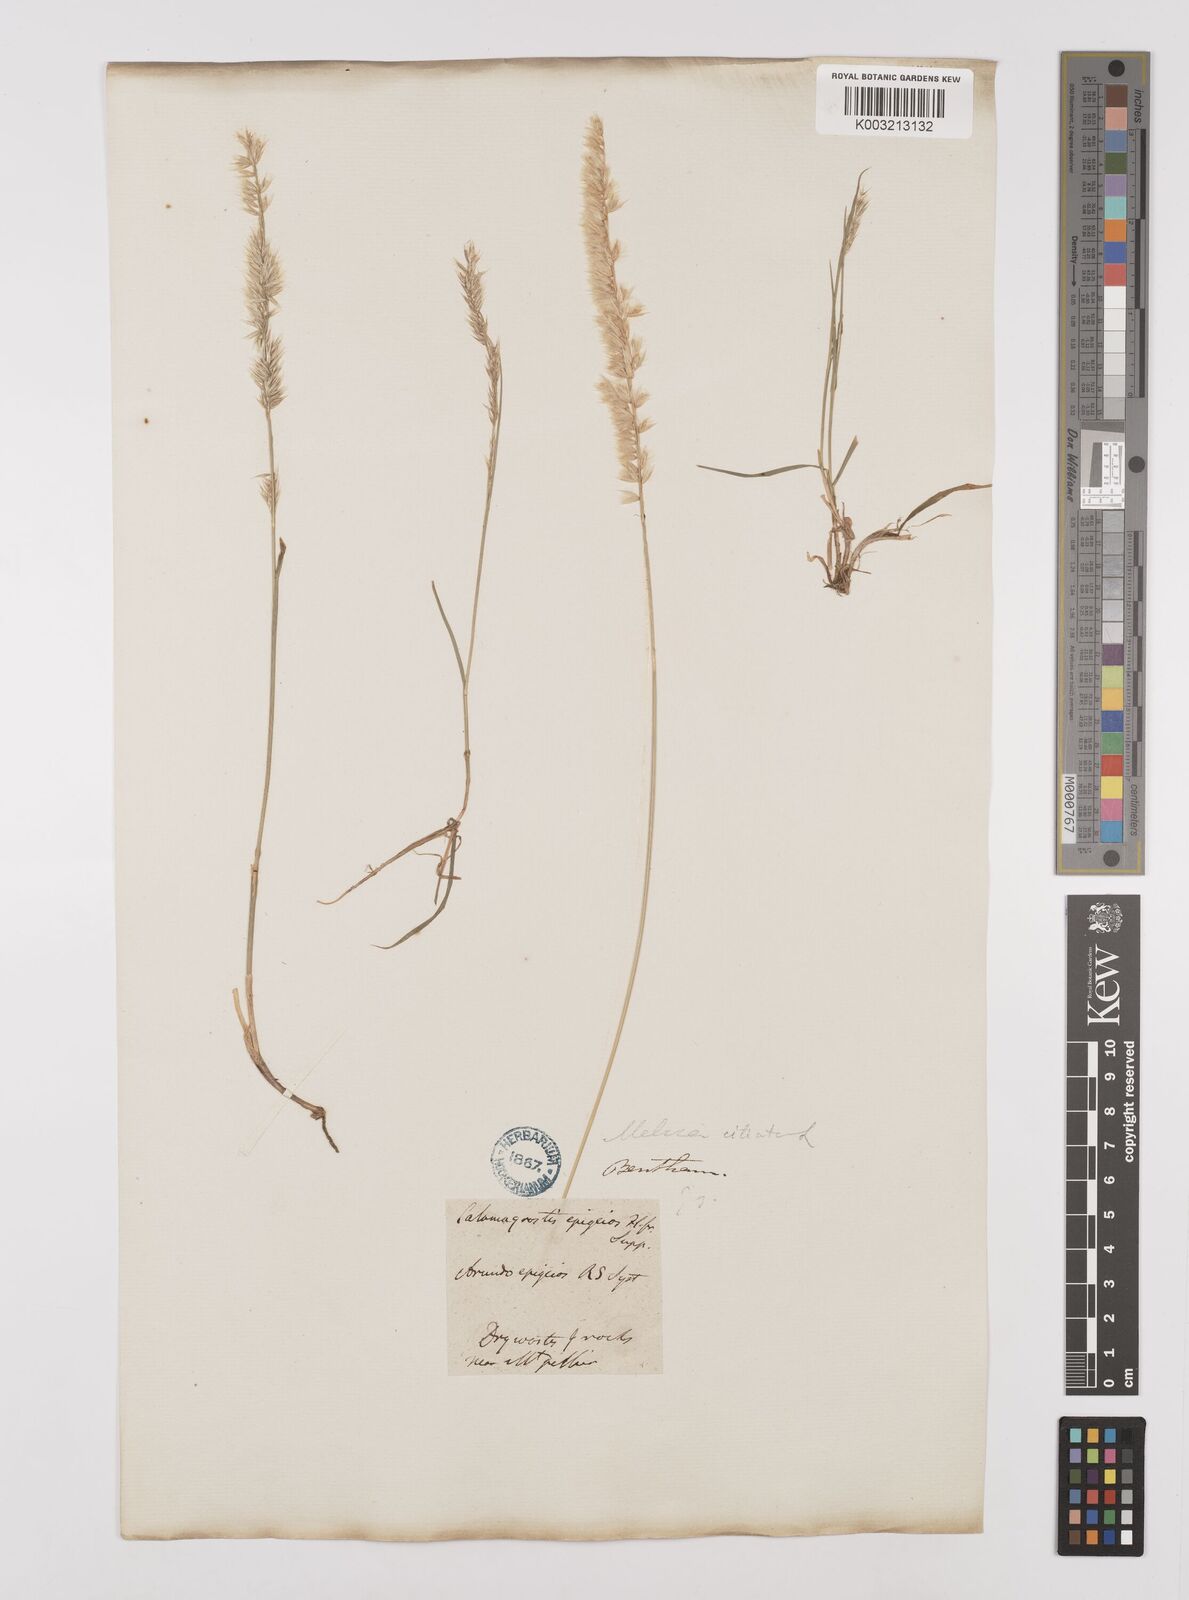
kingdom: Plantae
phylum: Tracheophyta
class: Liliopsida
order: Poales
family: Poaceae
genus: Melica
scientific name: Melica ciliata
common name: Hairy melicgrass
